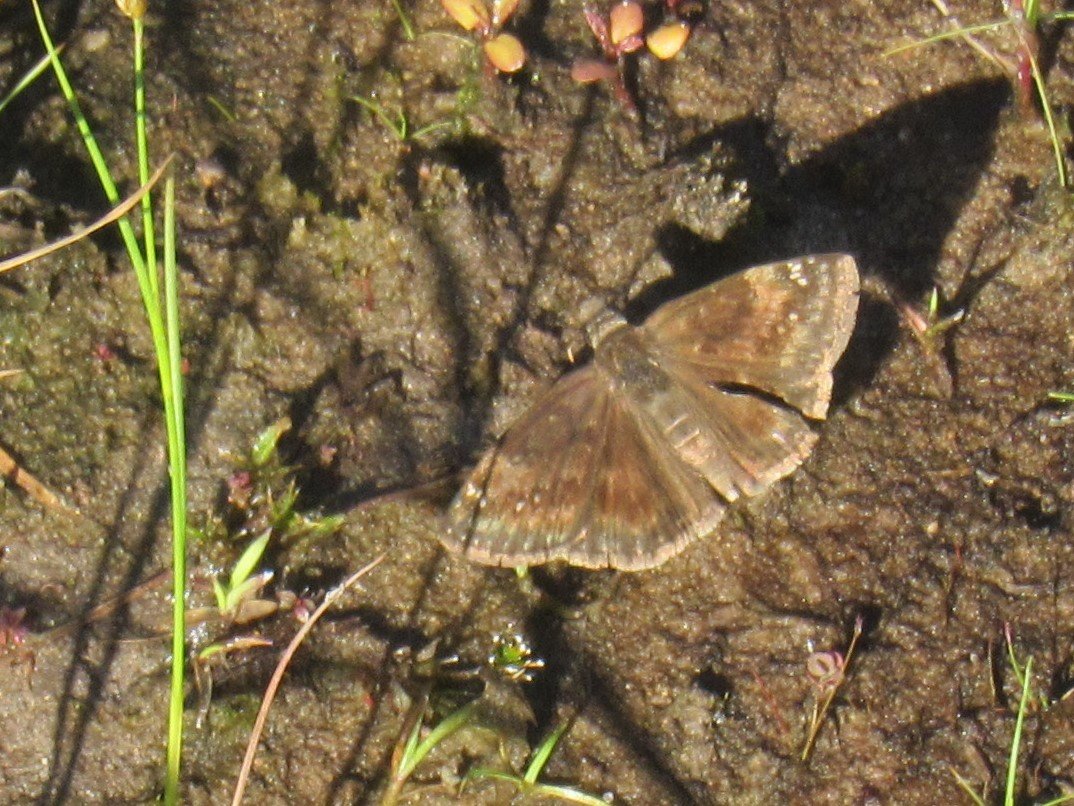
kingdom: Animalia
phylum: Arthropoda
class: Insecta
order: Lepidoptera
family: Hesperiidae
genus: Gesta
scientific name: Gesta
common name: Wild Indigo Duskywing
